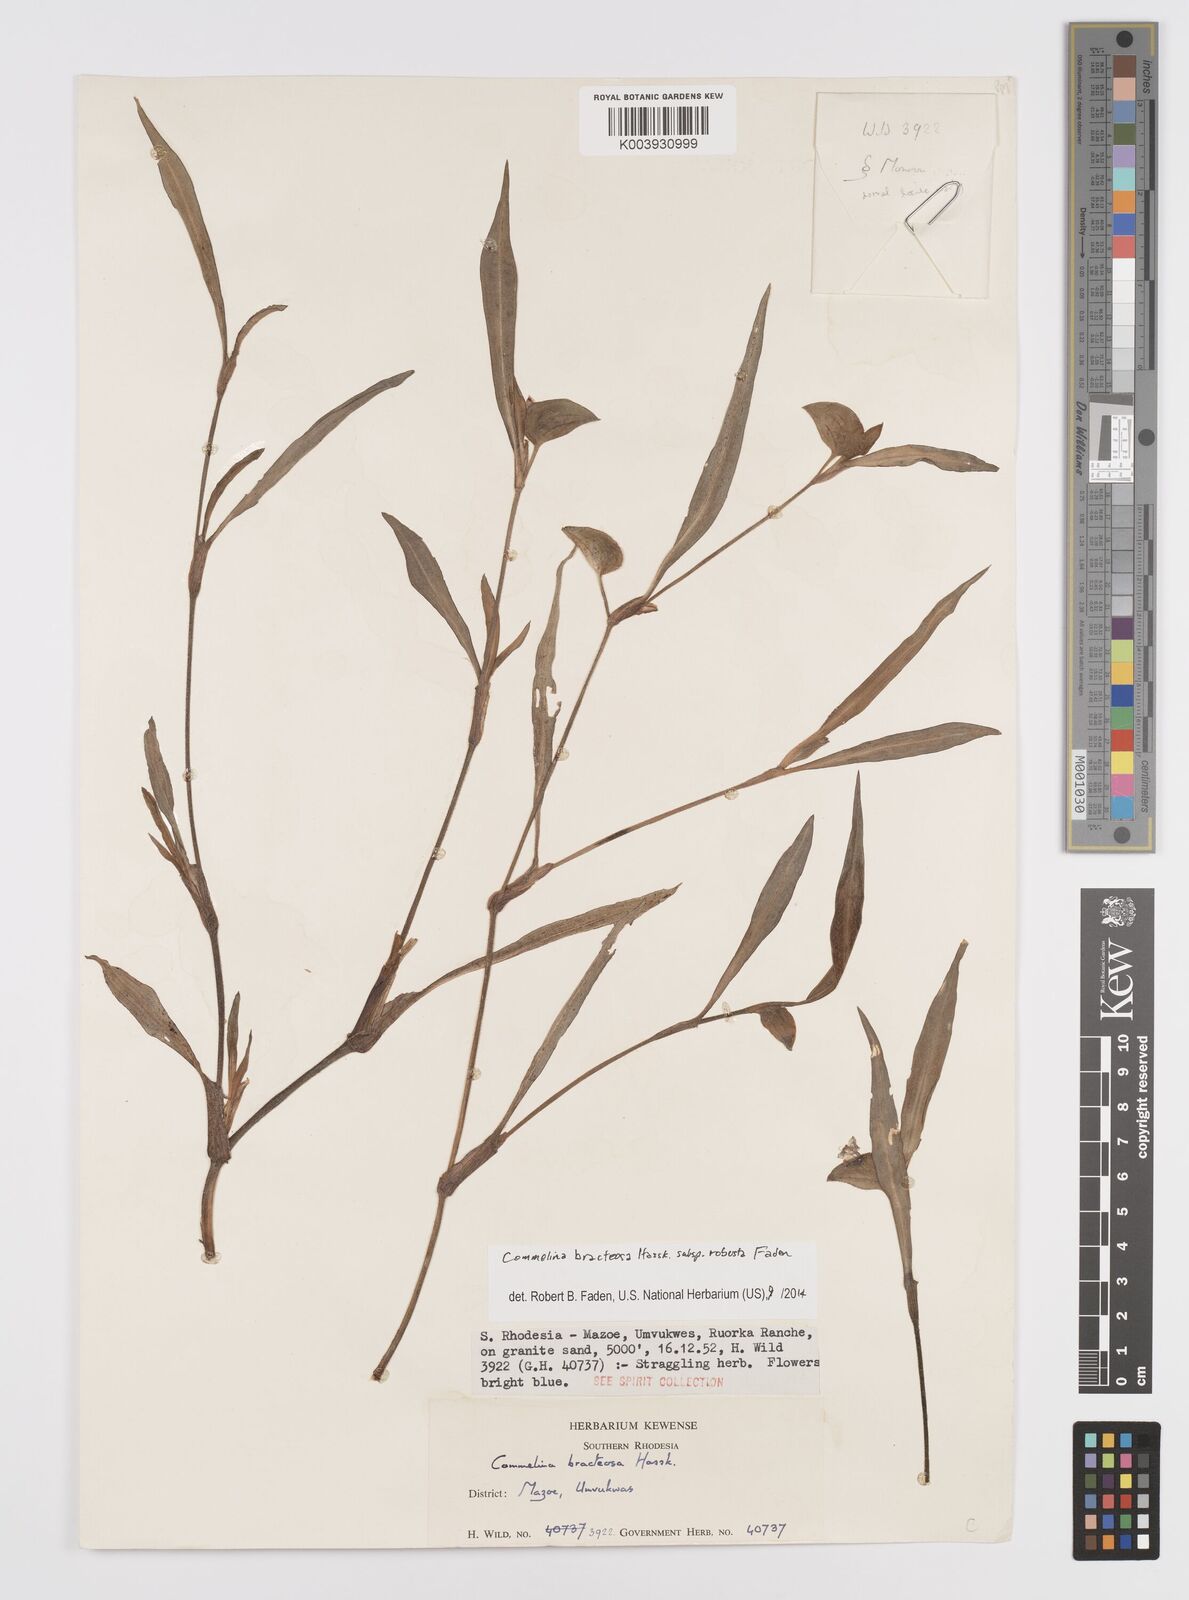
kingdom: Plantae
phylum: Tracheophyta
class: Liliopsida
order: Commelinales
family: Commelinaceae
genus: Commelina
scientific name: Commelina bracteosa
